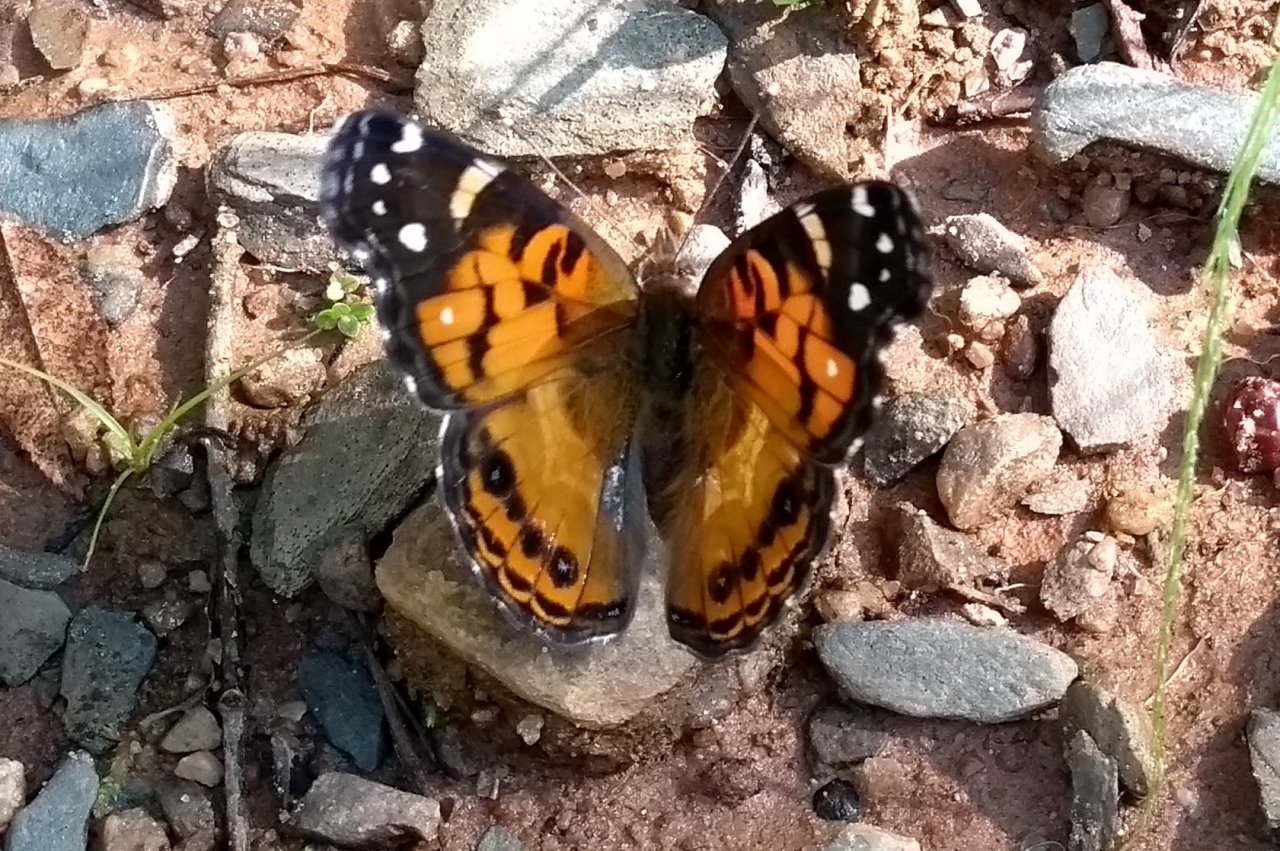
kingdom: Animalia
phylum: Arthropoda
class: Insecta
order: Lepidoptera
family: Nymphalidae
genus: Vanessa
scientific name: Vanessa virginiensis
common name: American Lady
